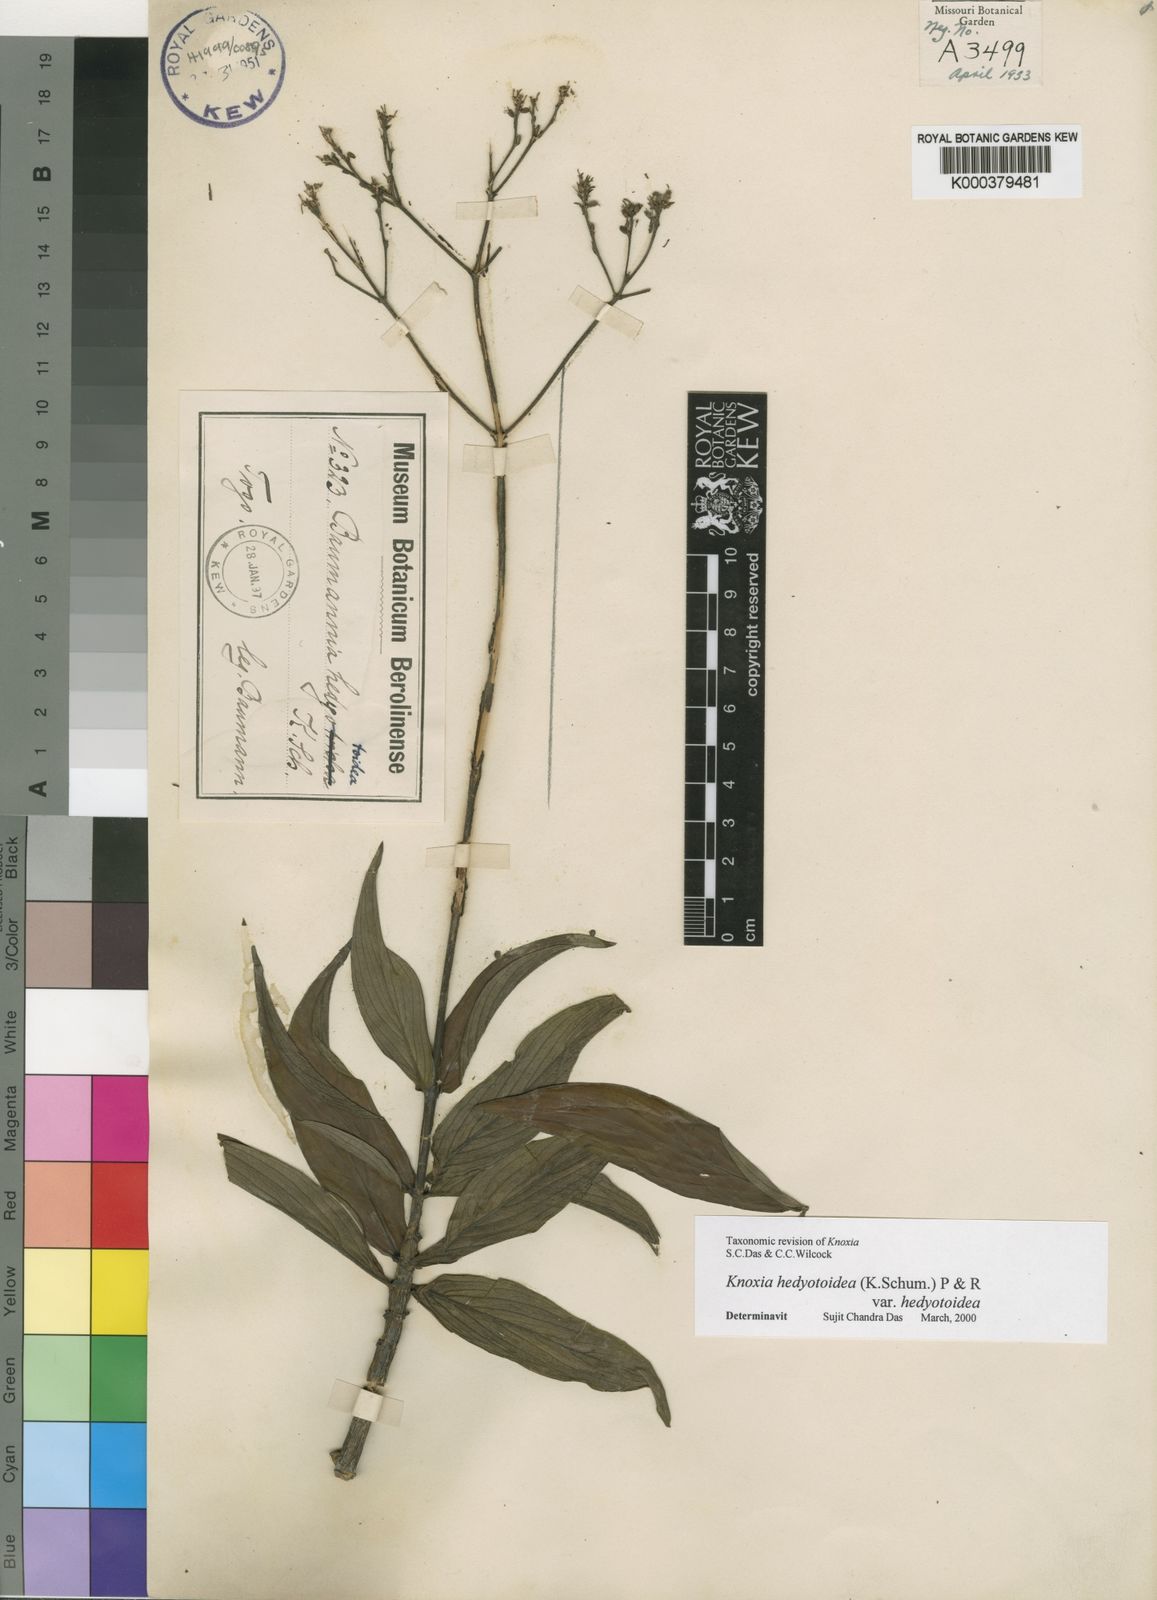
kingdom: Plantae
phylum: Tracheophyta
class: Magnoliopsida
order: Gentianales
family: Rubiaceae
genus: Knoxia
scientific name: Knoxia hedyotoidea
